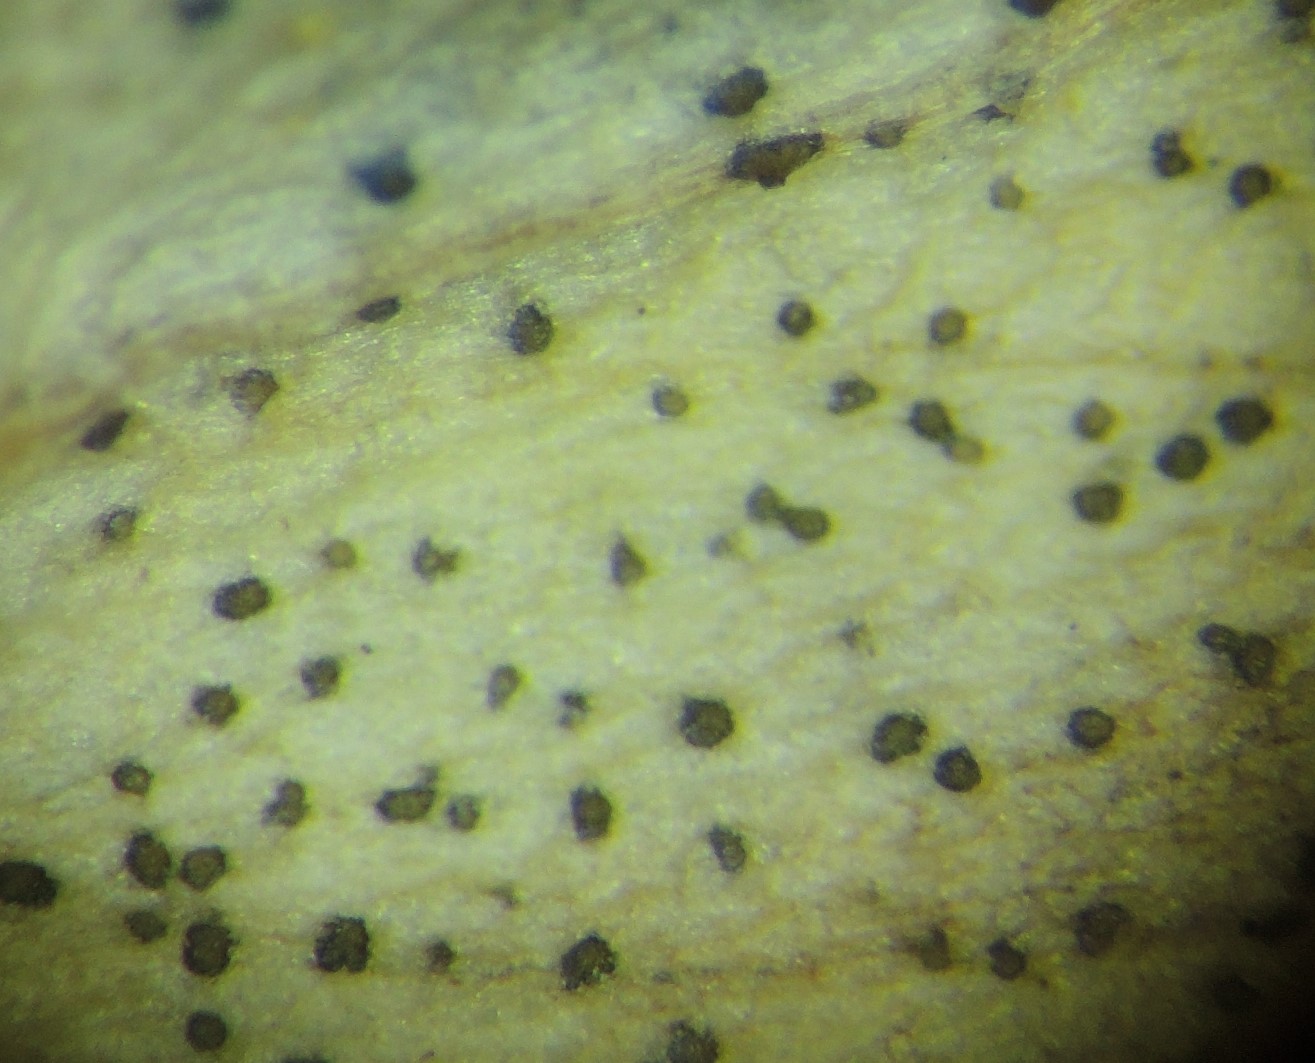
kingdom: Fungi
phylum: Ascomycota
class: Dothideomycetes
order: Mycosphaerellales
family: Mycosphaerellaceae
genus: Septoria
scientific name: Septoria stellariae
